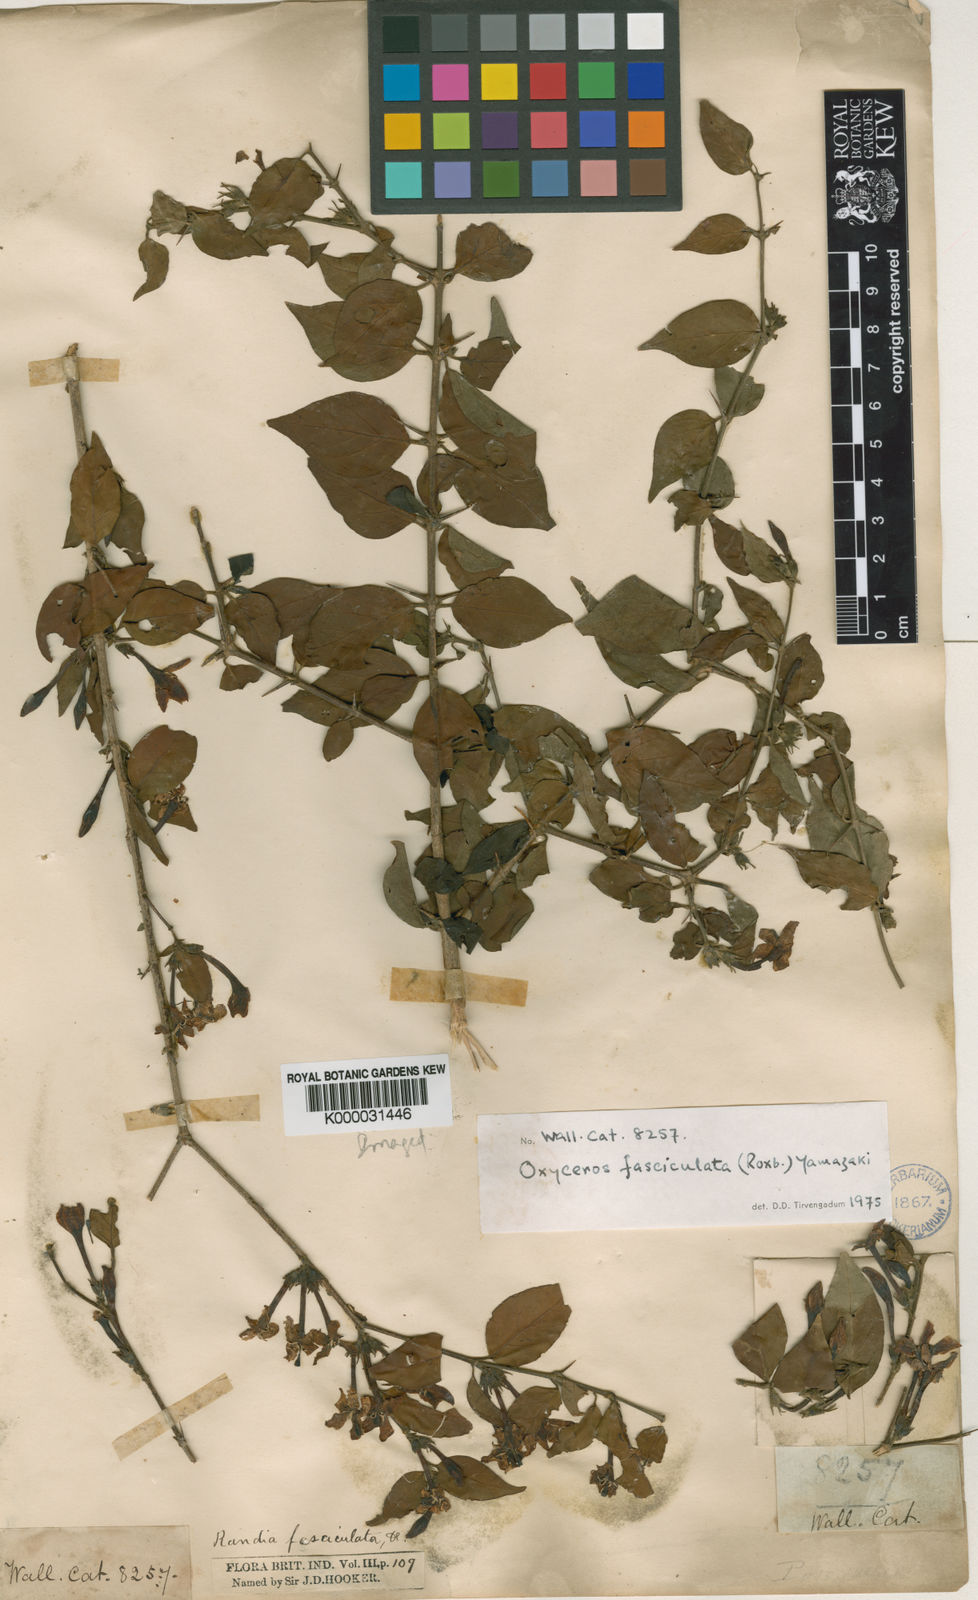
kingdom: Plantae
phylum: Tracheophyta
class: Magnoliopsida
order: Gentianales
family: Rubiaceae
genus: Benkara
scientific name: Benkara fasciculata
